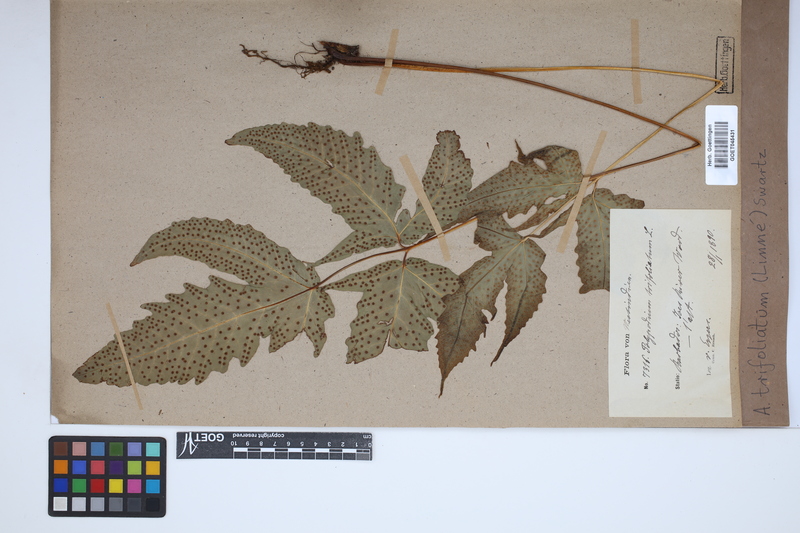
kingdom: Plantae
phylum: Tracheophyta
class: Polypodiopsida
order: Polypodiales
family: Tectariaceae
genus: Tectaria
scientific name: Tectaria trifoliata
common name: Threeleaf halberd fern
